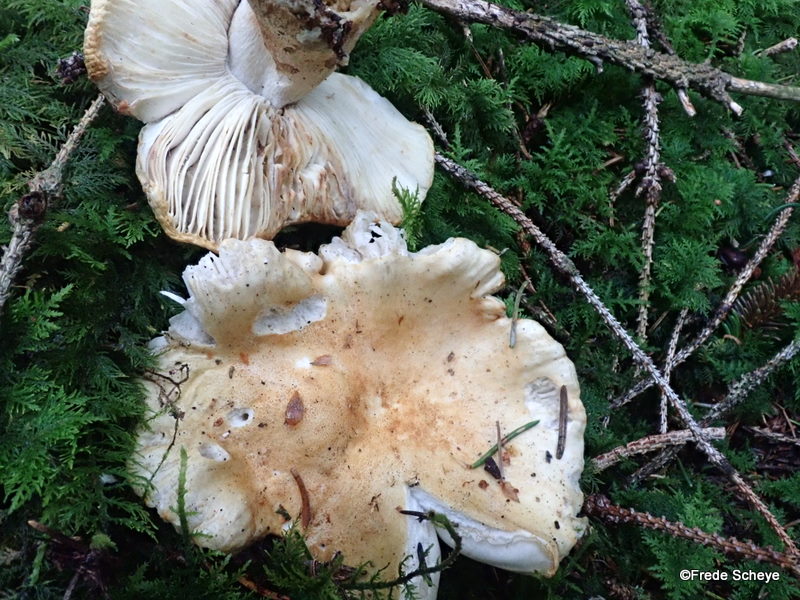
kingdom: Fungi
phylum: Basidiomycota
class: Agaricomycetes
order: Russulales
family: Russulaceae
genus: Russula
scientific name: Russula ochroleuca
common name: okkergul skørhat
